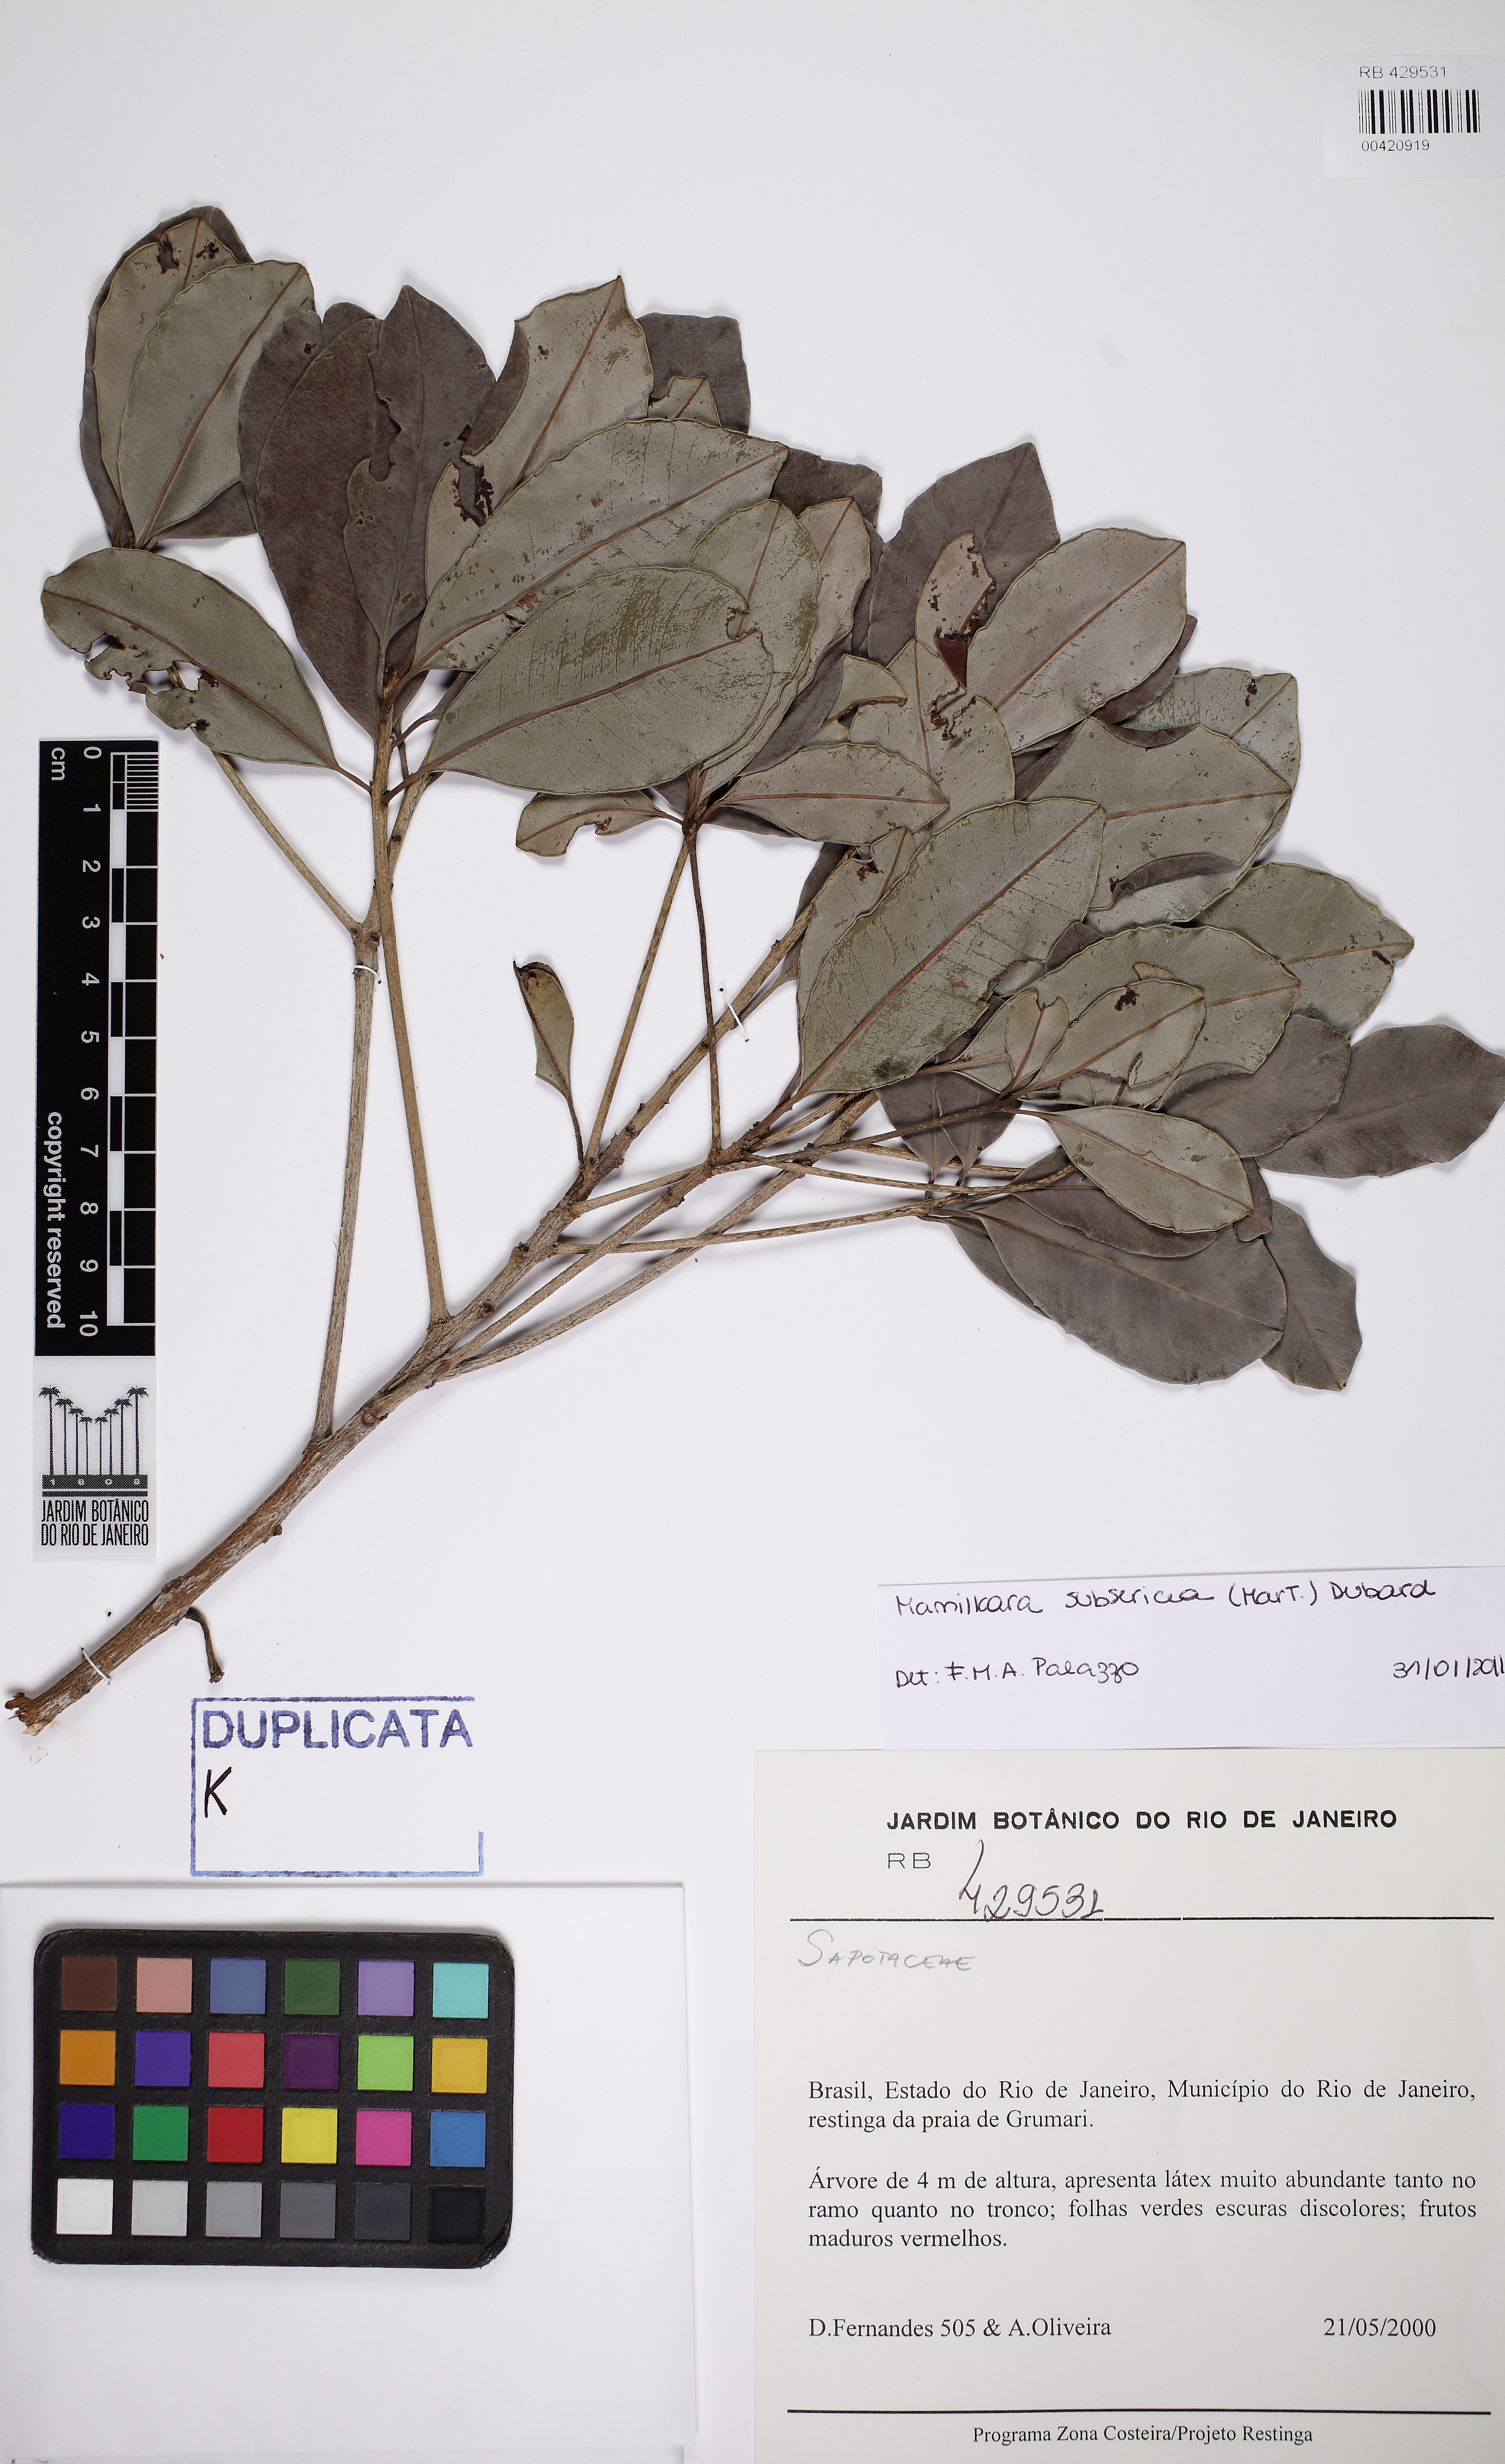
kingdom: Plantae
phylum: Tracheophyta
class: Magnoliopsida
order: Ericales
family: Sapotaceae
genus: Manilkara
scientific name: Manilkara subsericea
